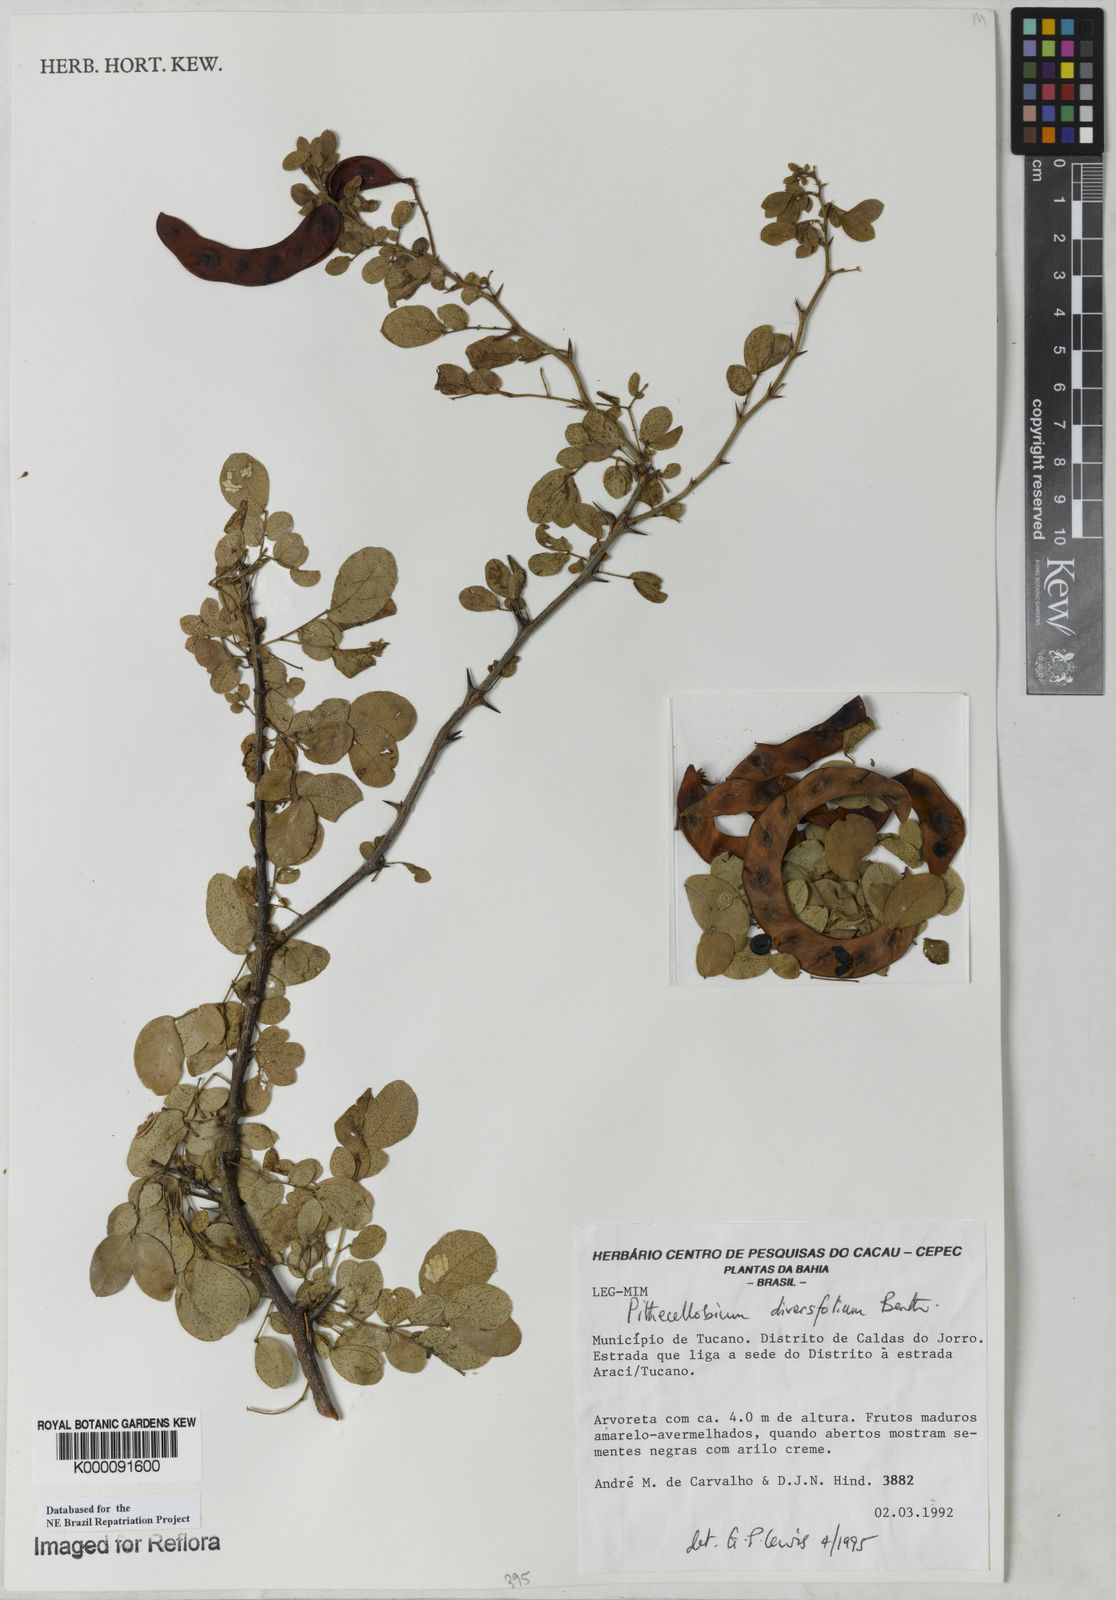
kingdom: Plantae
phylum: Tracheophyta
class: Magnoliopsida
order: Fabales
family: Fabaceae
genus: Pithecellobium
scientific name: Pithecellobium diversifolium
